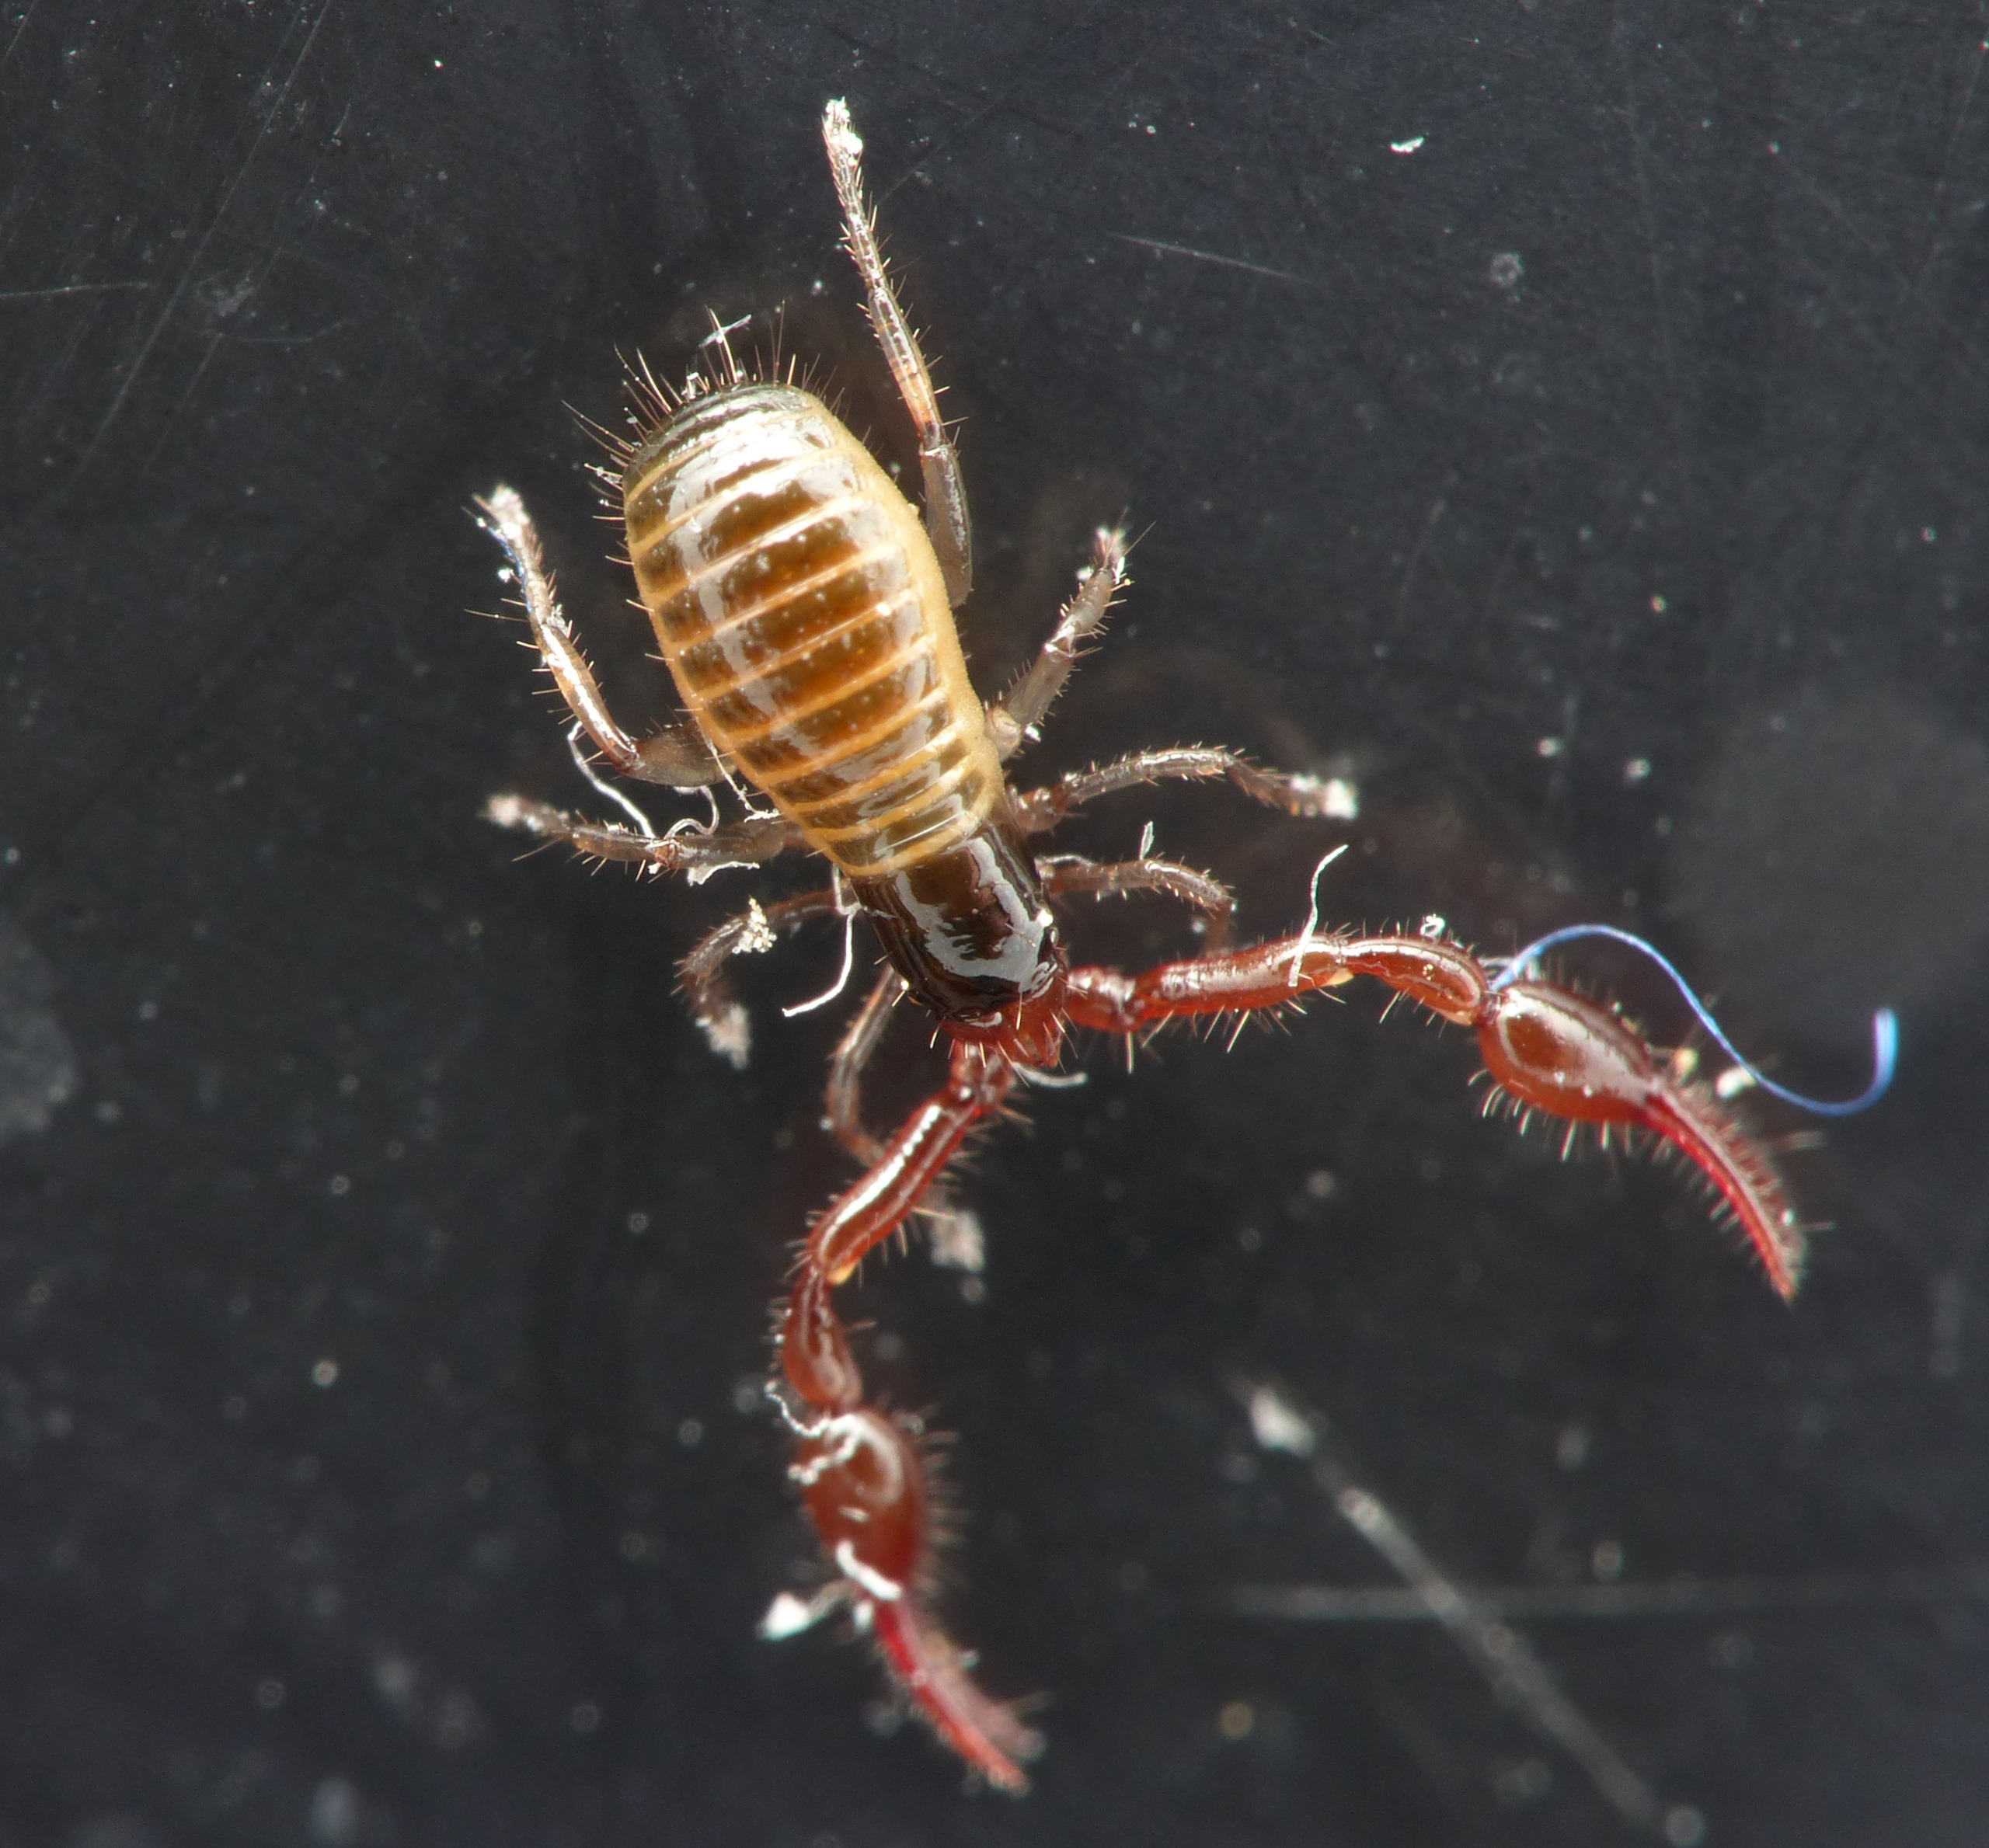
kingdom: Animalia
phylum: Arthropoda
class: Arachnida
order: Pseudoscorpiones
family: Neobisiidae
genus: Neobisium
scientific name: Neobisium carcinoides
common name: Almindelig mosskorpion
